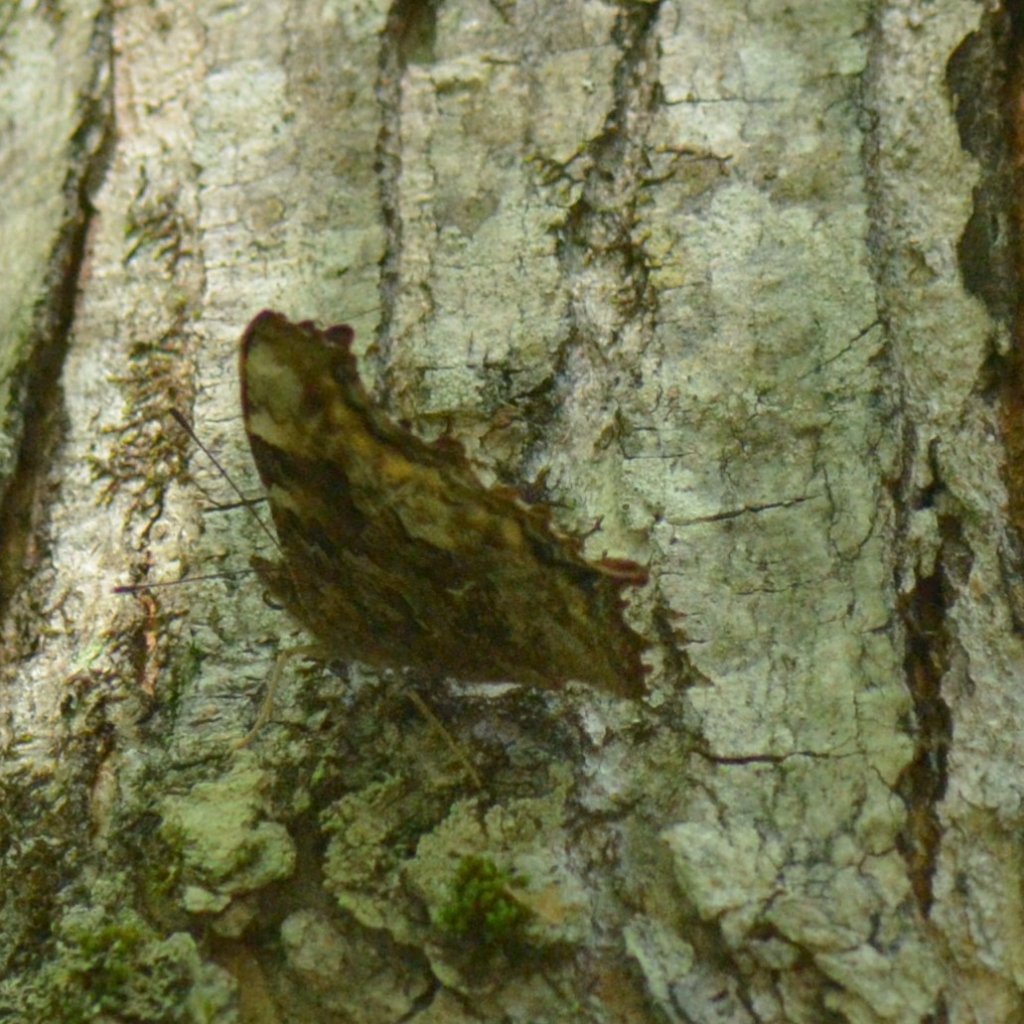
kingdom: Animalia
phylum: Arthropoda
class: Insecta
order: Lepidoptera
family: Nymphalidae
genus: Polygonia
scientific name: Polygonia vaualbum
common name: Compton Tortoiseshell
